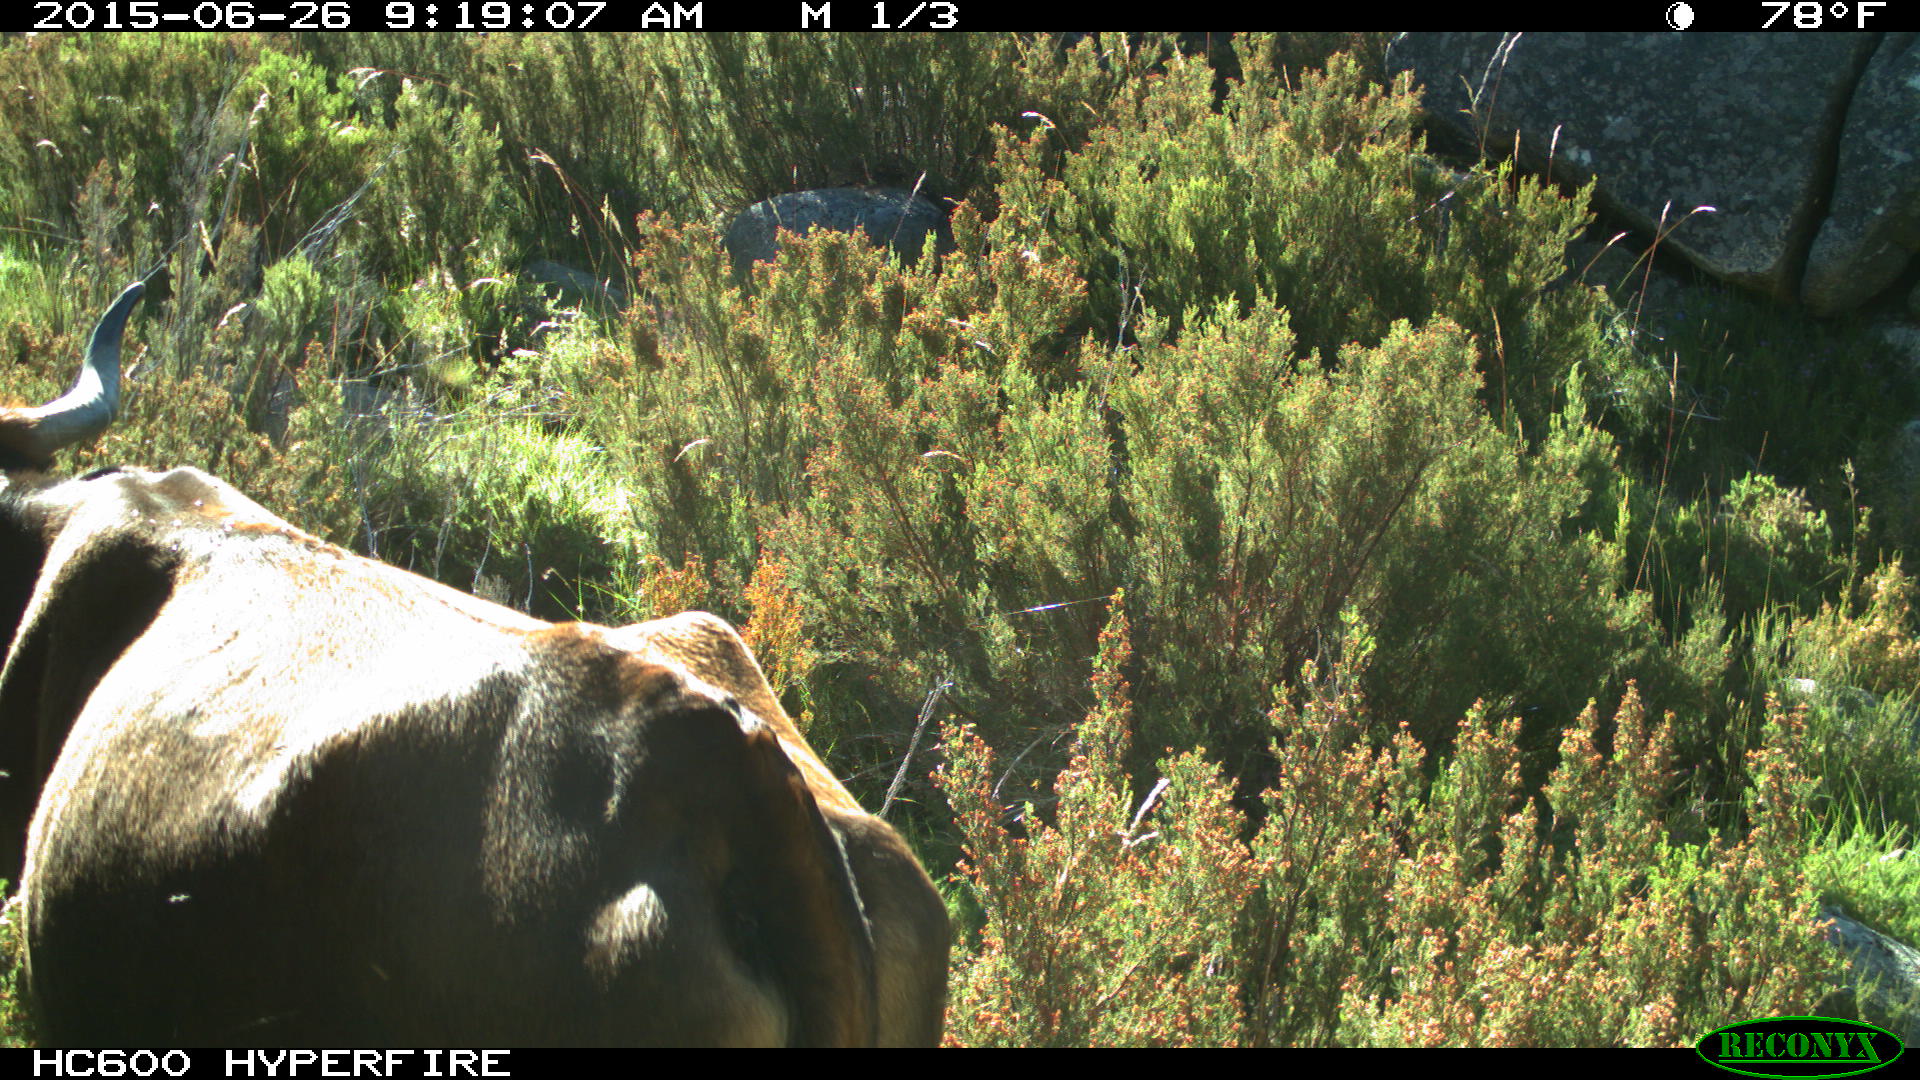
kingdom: Animalia
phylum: Chordata
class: Mammalia
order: Artiodactyla
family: Bovidae
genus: Bos
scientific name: Bos taurus
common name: Domesticated cattle
